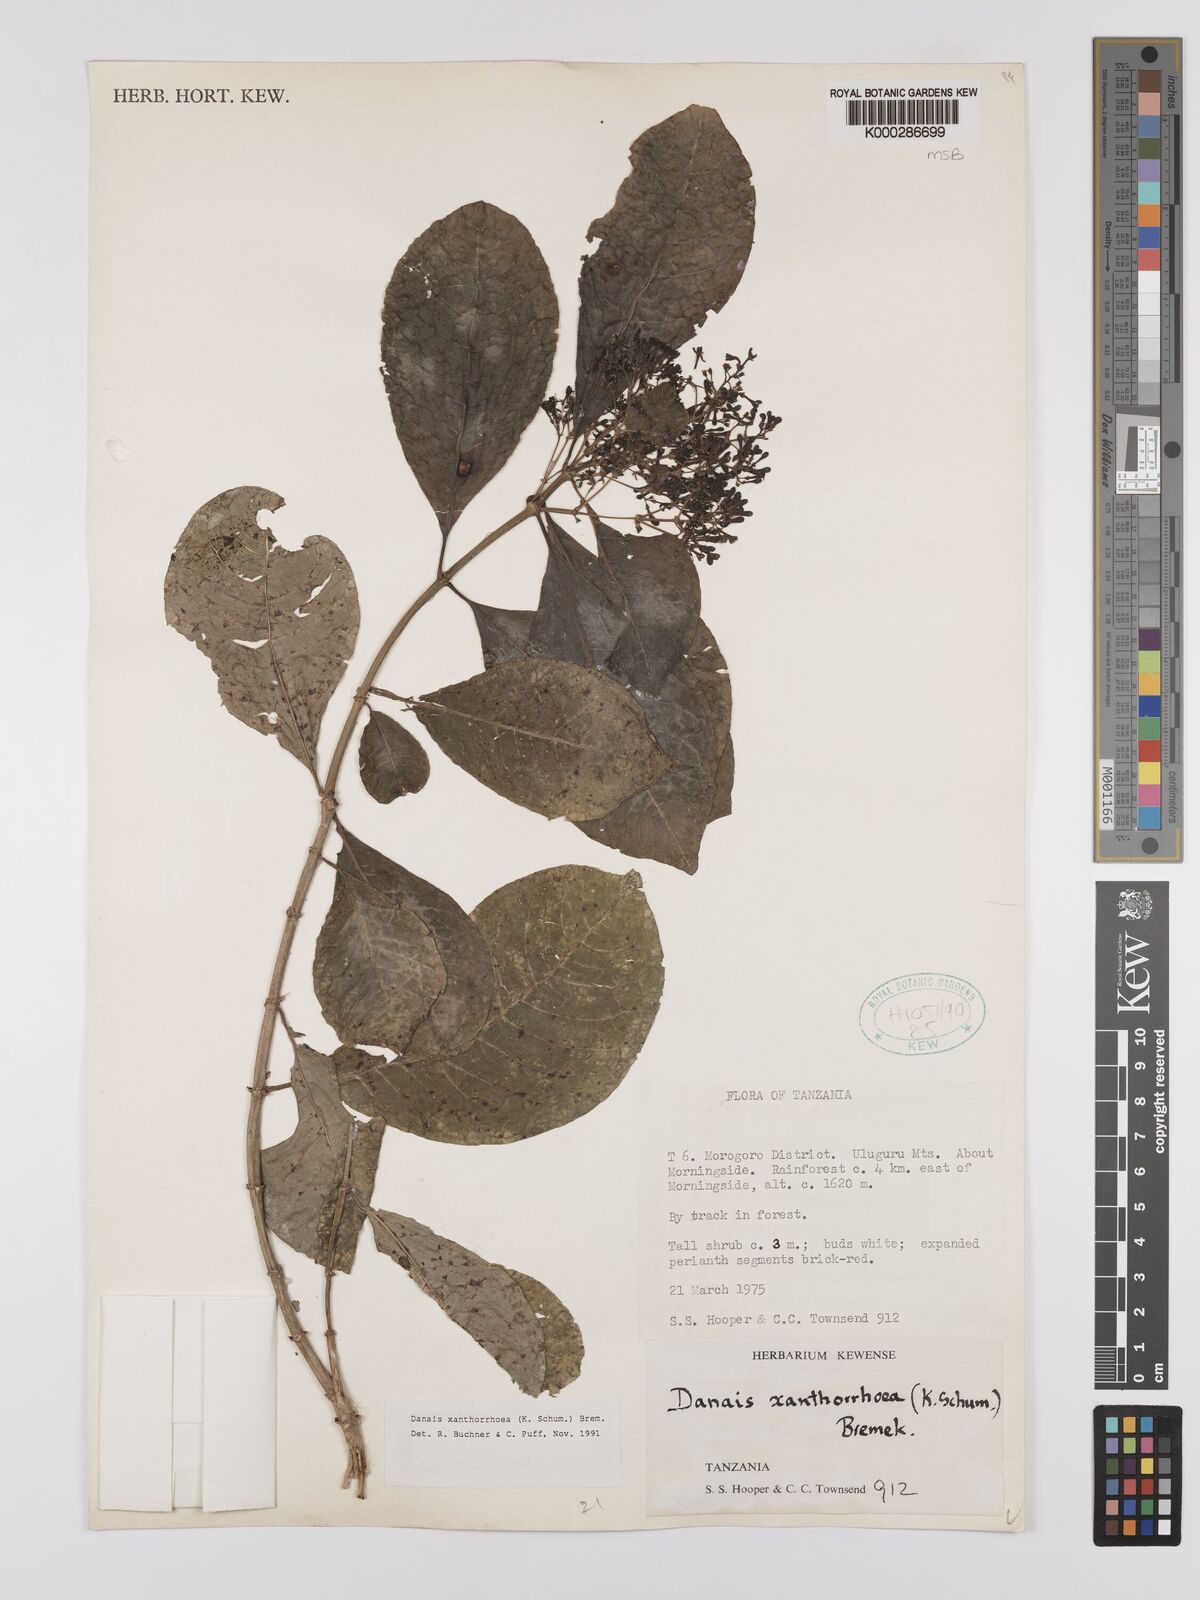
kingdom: Plantae
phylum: Tracheophyta
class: Magnoliopsida
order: Gentianales
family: Rubiaceae
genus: Danais
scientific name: Danais xanthorrhoea
